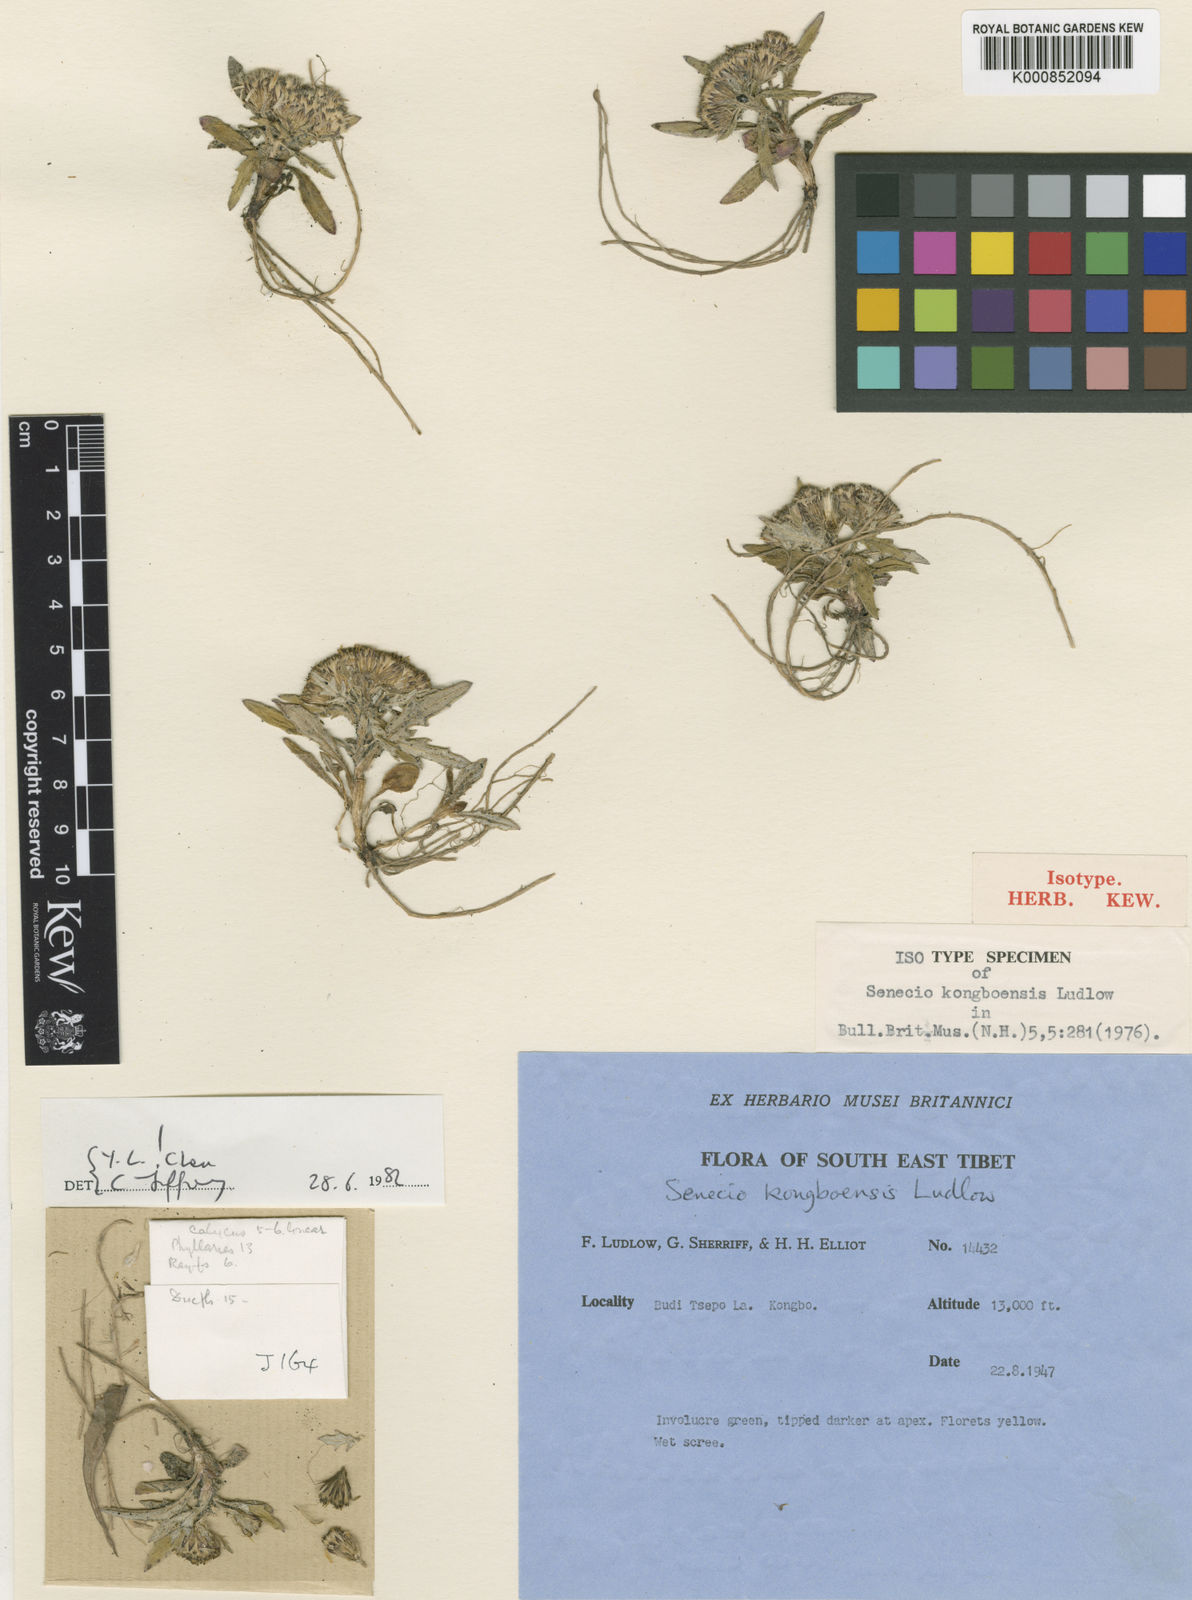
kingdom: Plantae
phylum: Tracheophyta
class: Magnoliopsida
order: Asterales
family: Asteraceae
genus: Senecio
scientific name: Senecio kongboensis
